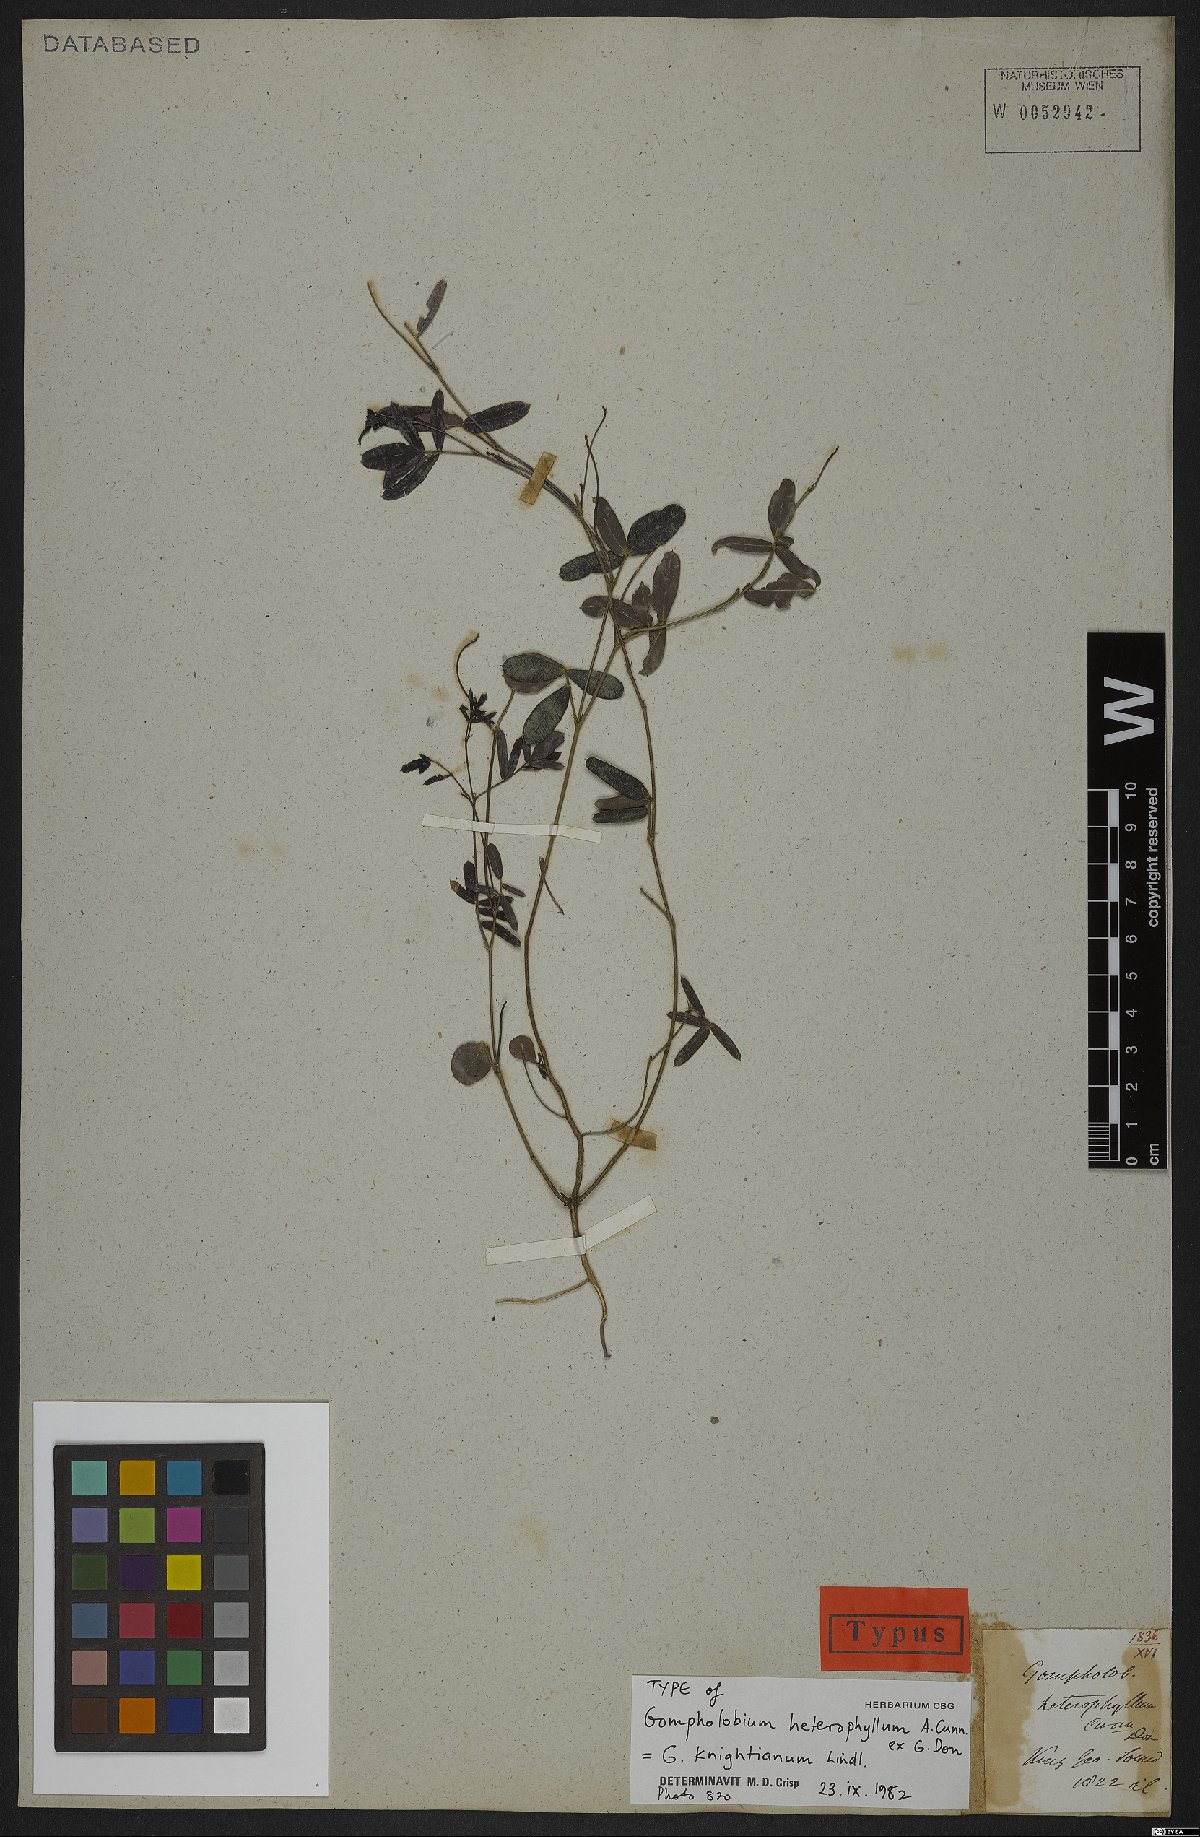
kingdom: Plantae
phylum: Tracheophyta
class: Magnoliopsida
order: Fabales
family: Fabaceae
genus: Gompholobium
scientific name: Gompholobium knightianum
